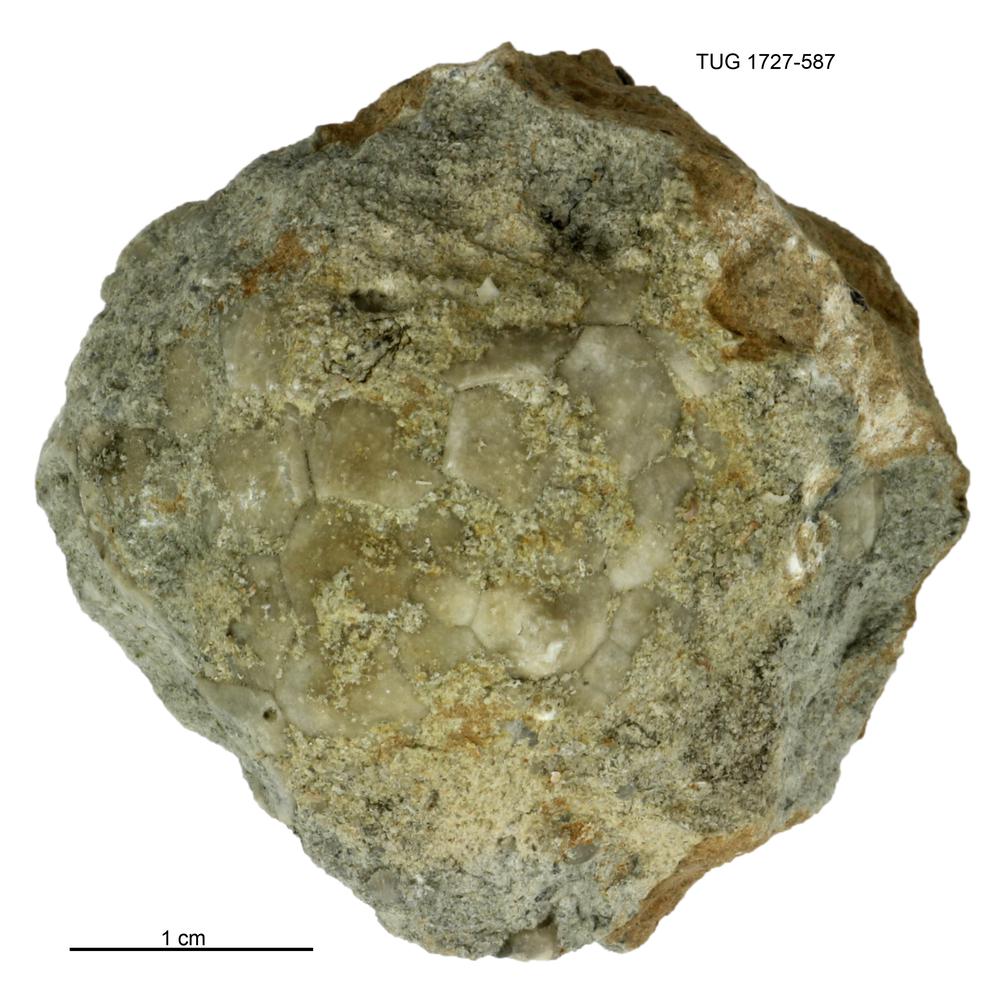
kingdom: Animalia
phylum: Echinodermata
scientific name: Echinodermata
